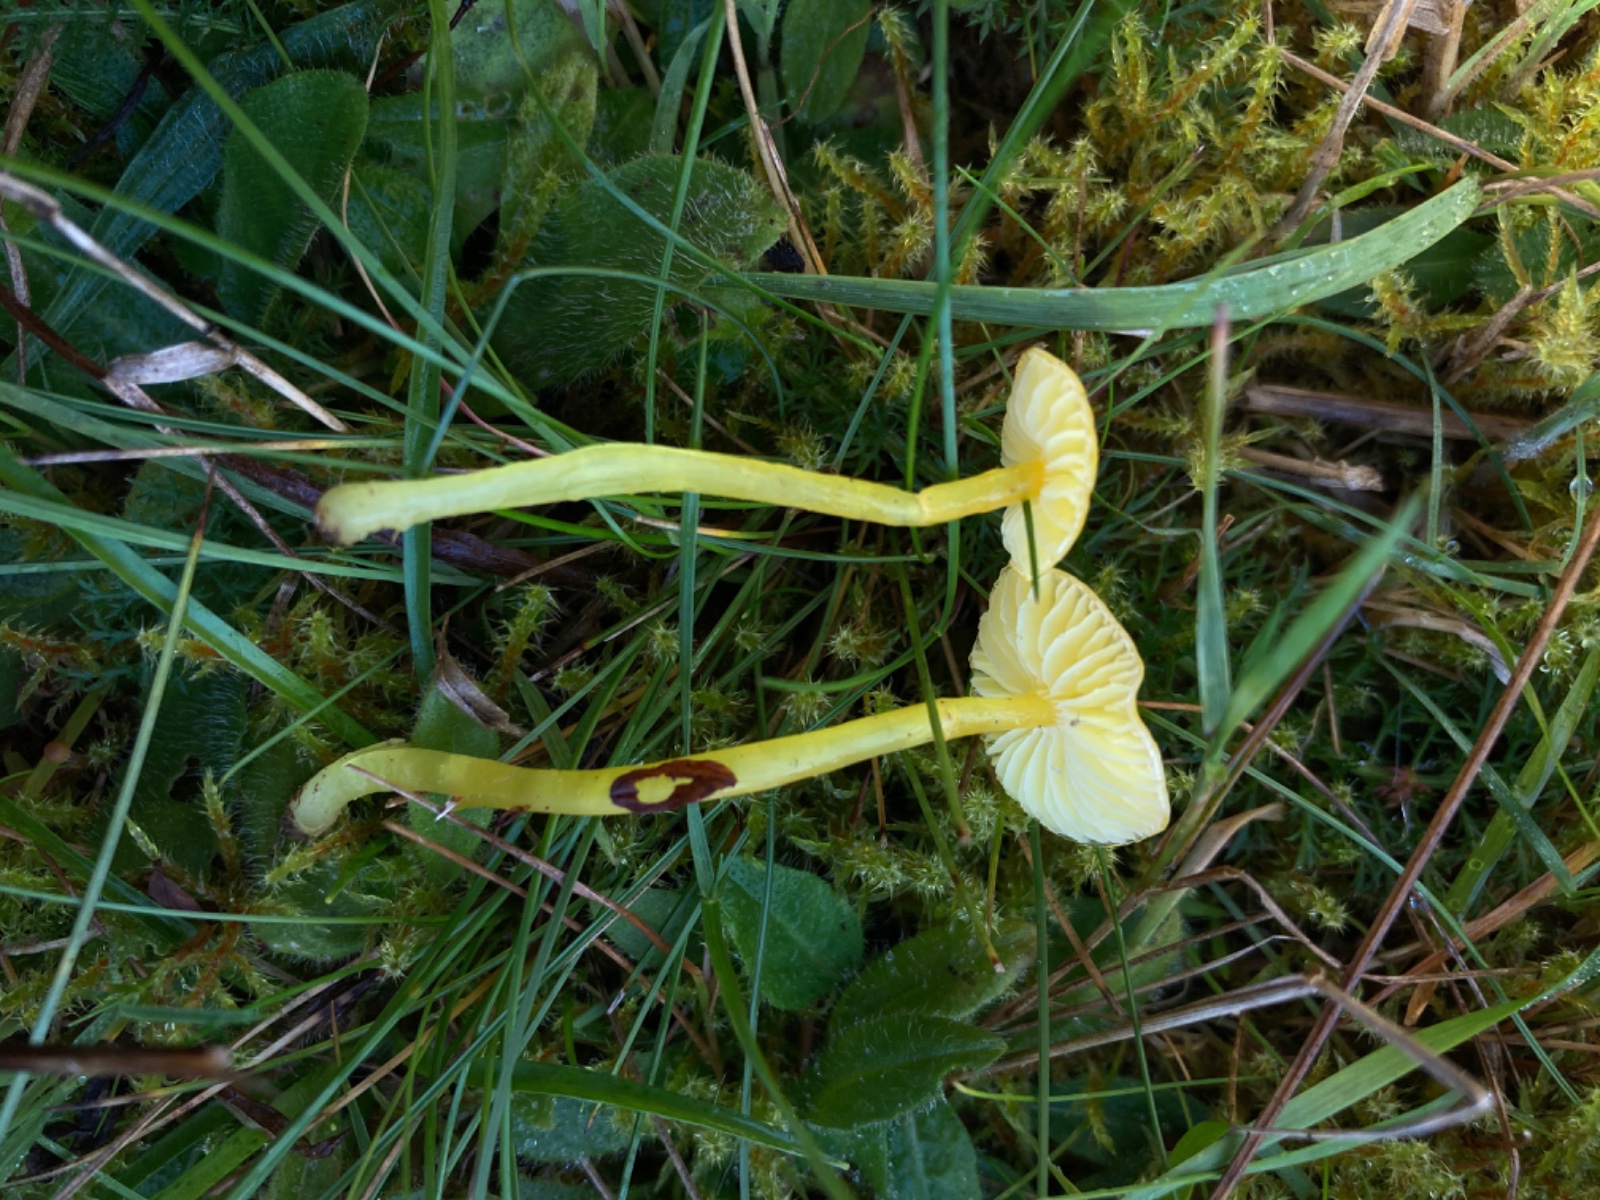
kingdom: Fungi
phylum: Basidiomycota
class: Agaricomycetes
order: Agaricales
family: Hygrophoraceae
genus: Hygrocybe
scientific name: Hygrocybe glutinipes
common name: slimstokket vokshat
